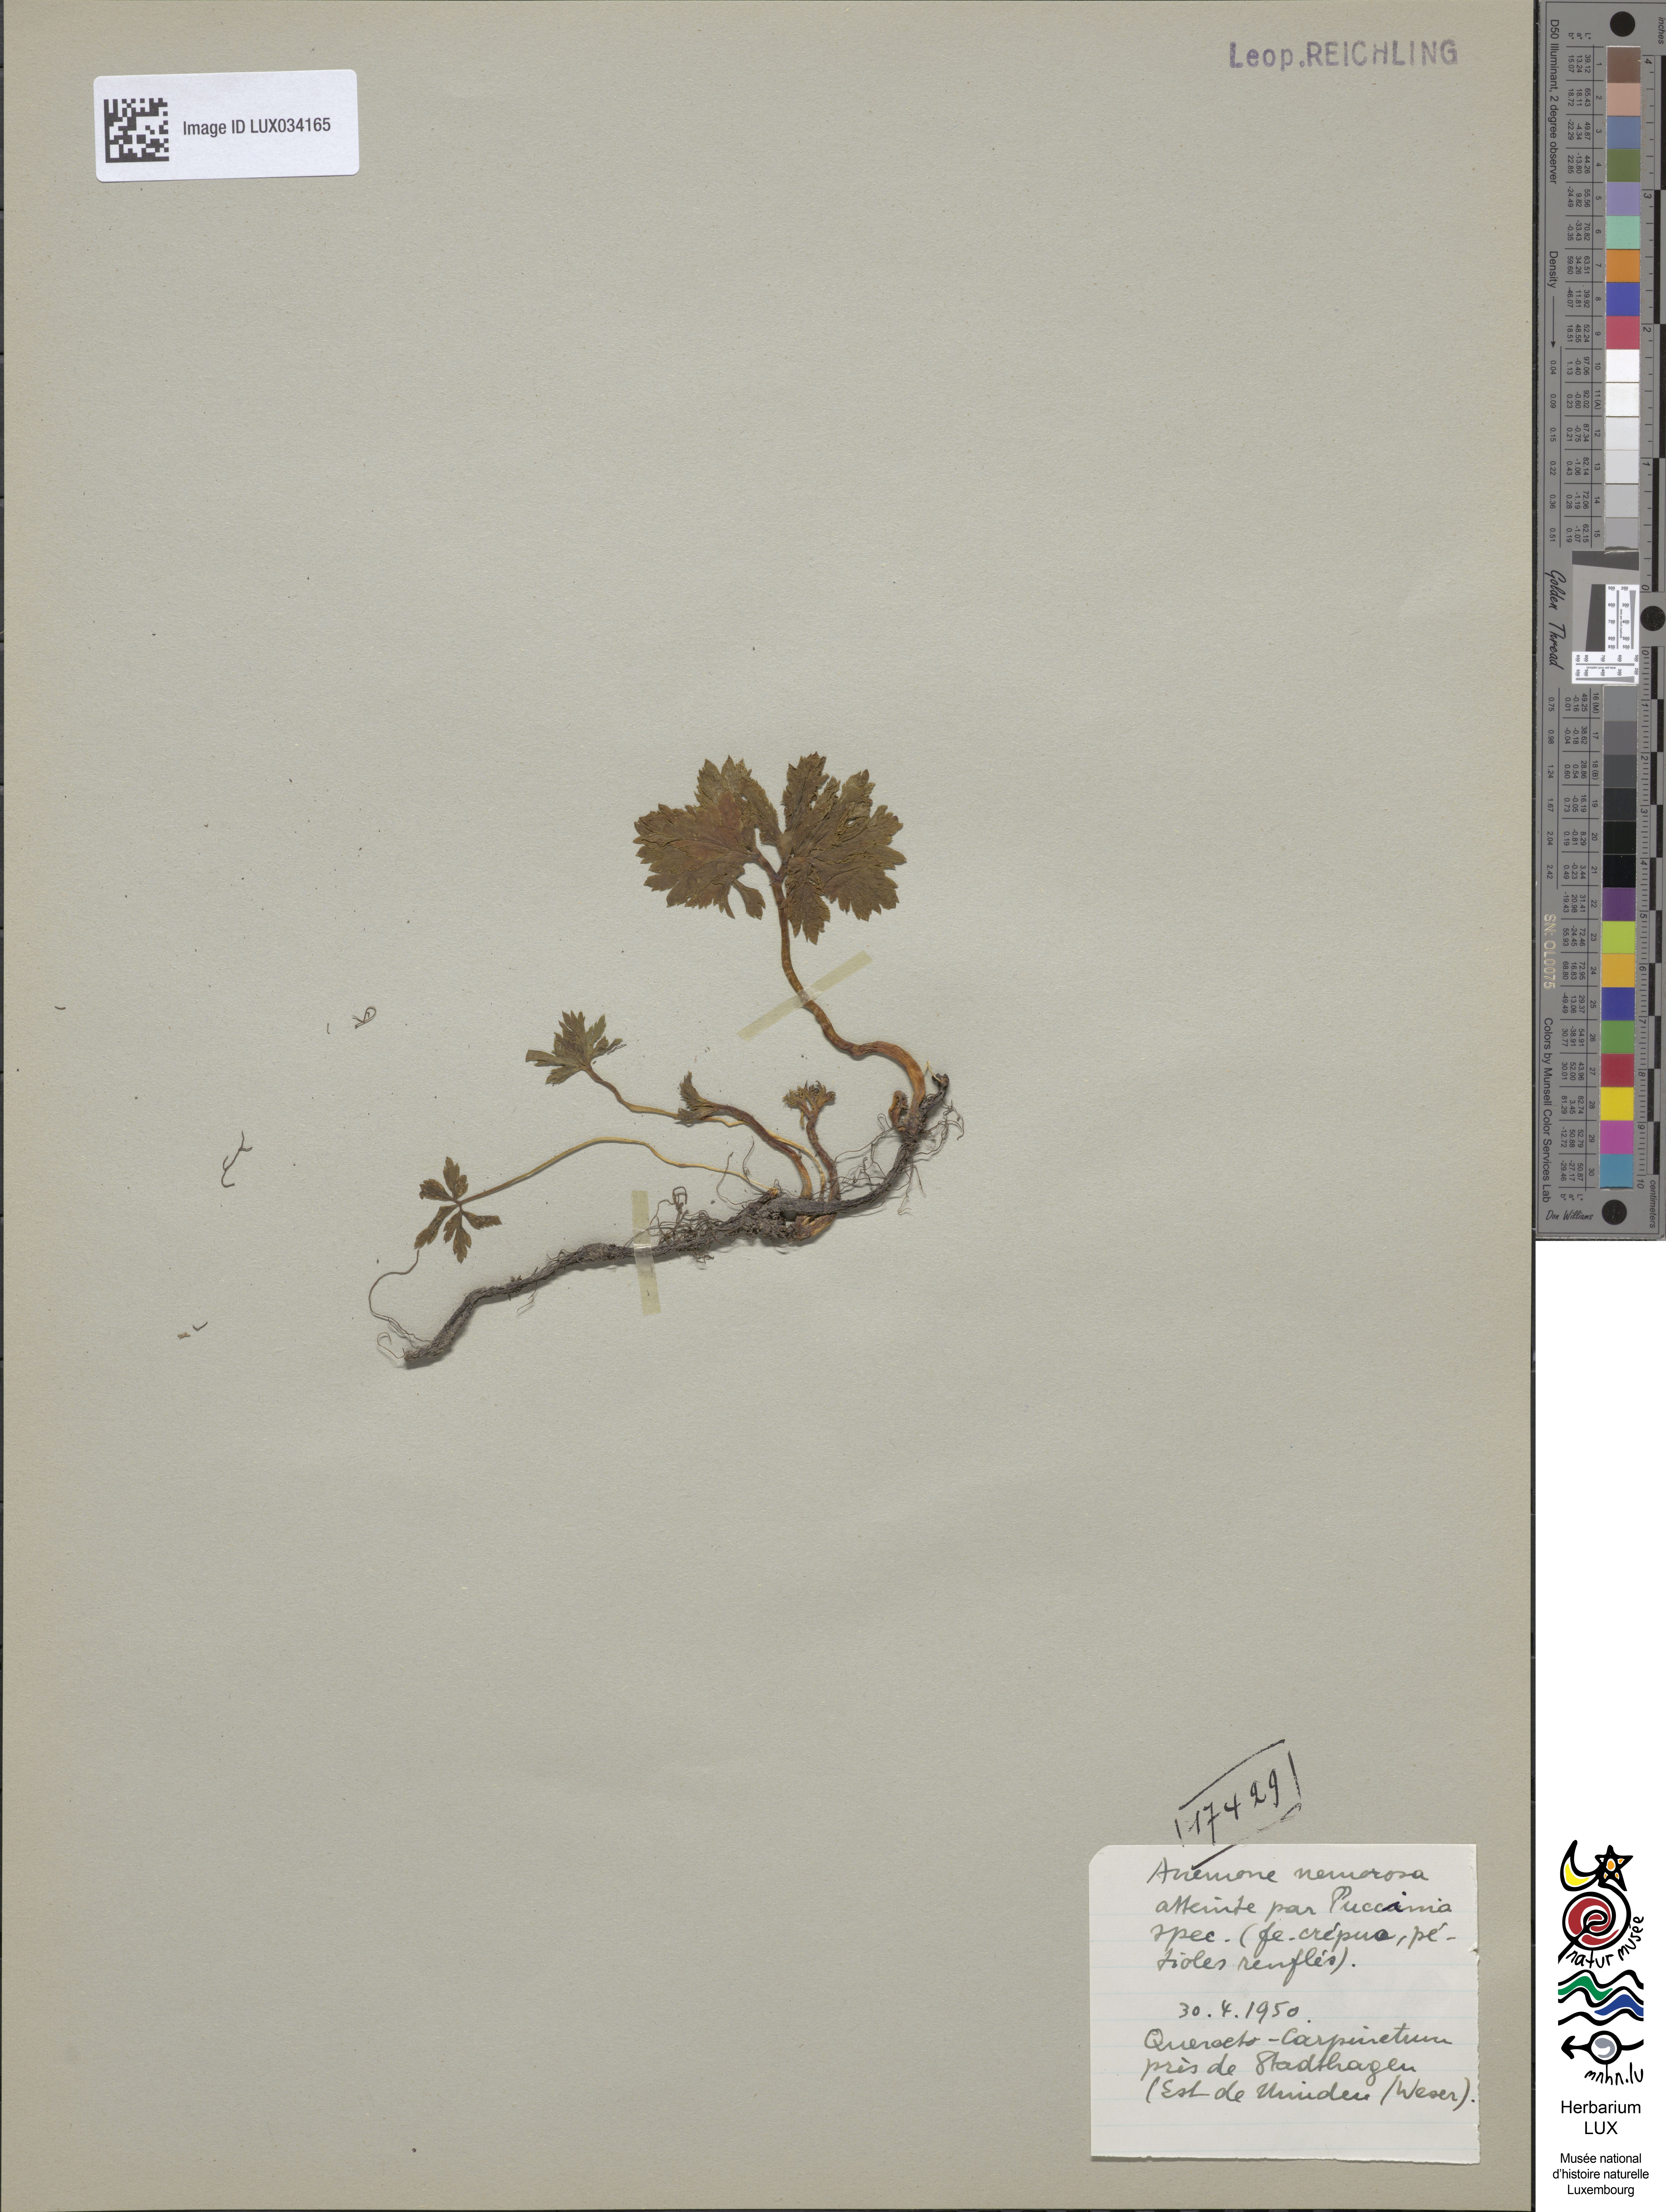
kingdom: Plantae
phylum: Tracheophyta
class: Magnoliopsida
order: Ranunculales
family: Ranunculaceae
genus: Anemone
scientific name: Anemone nemorosa
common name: Wood anemone
